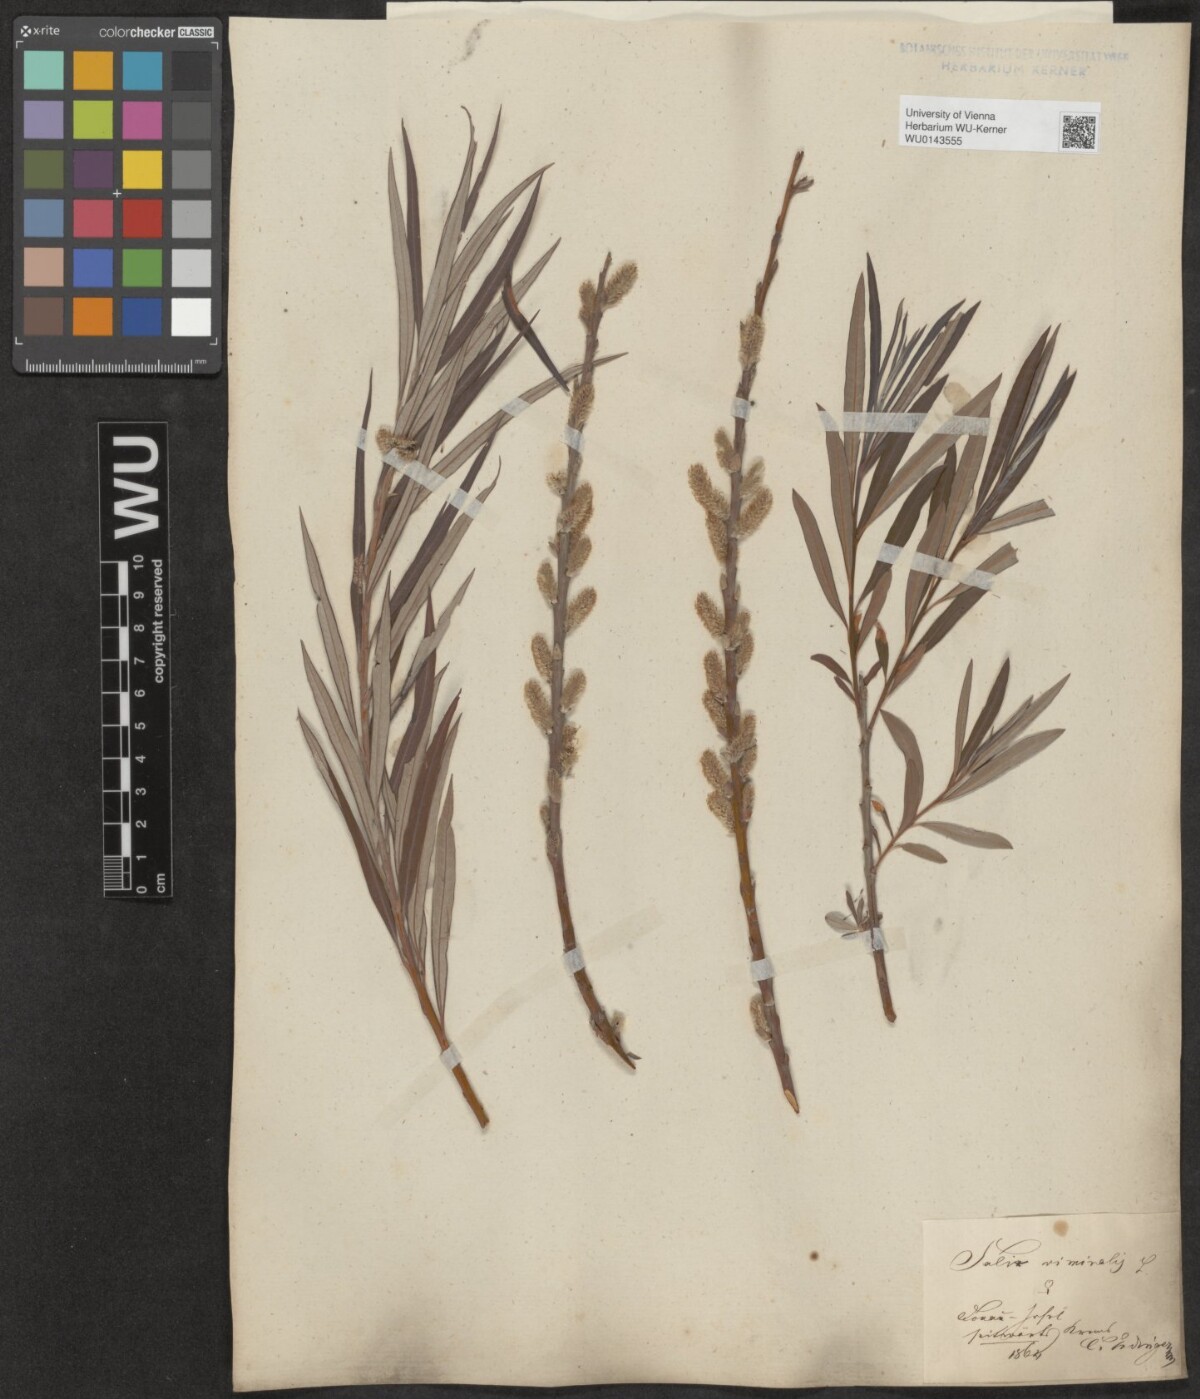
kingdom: Plantae
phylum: Tracheophyta
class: Magnoliopsida
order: Malpighiales
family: Salicaceae
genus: Salix
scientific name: Salix viminalis
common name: Osier
